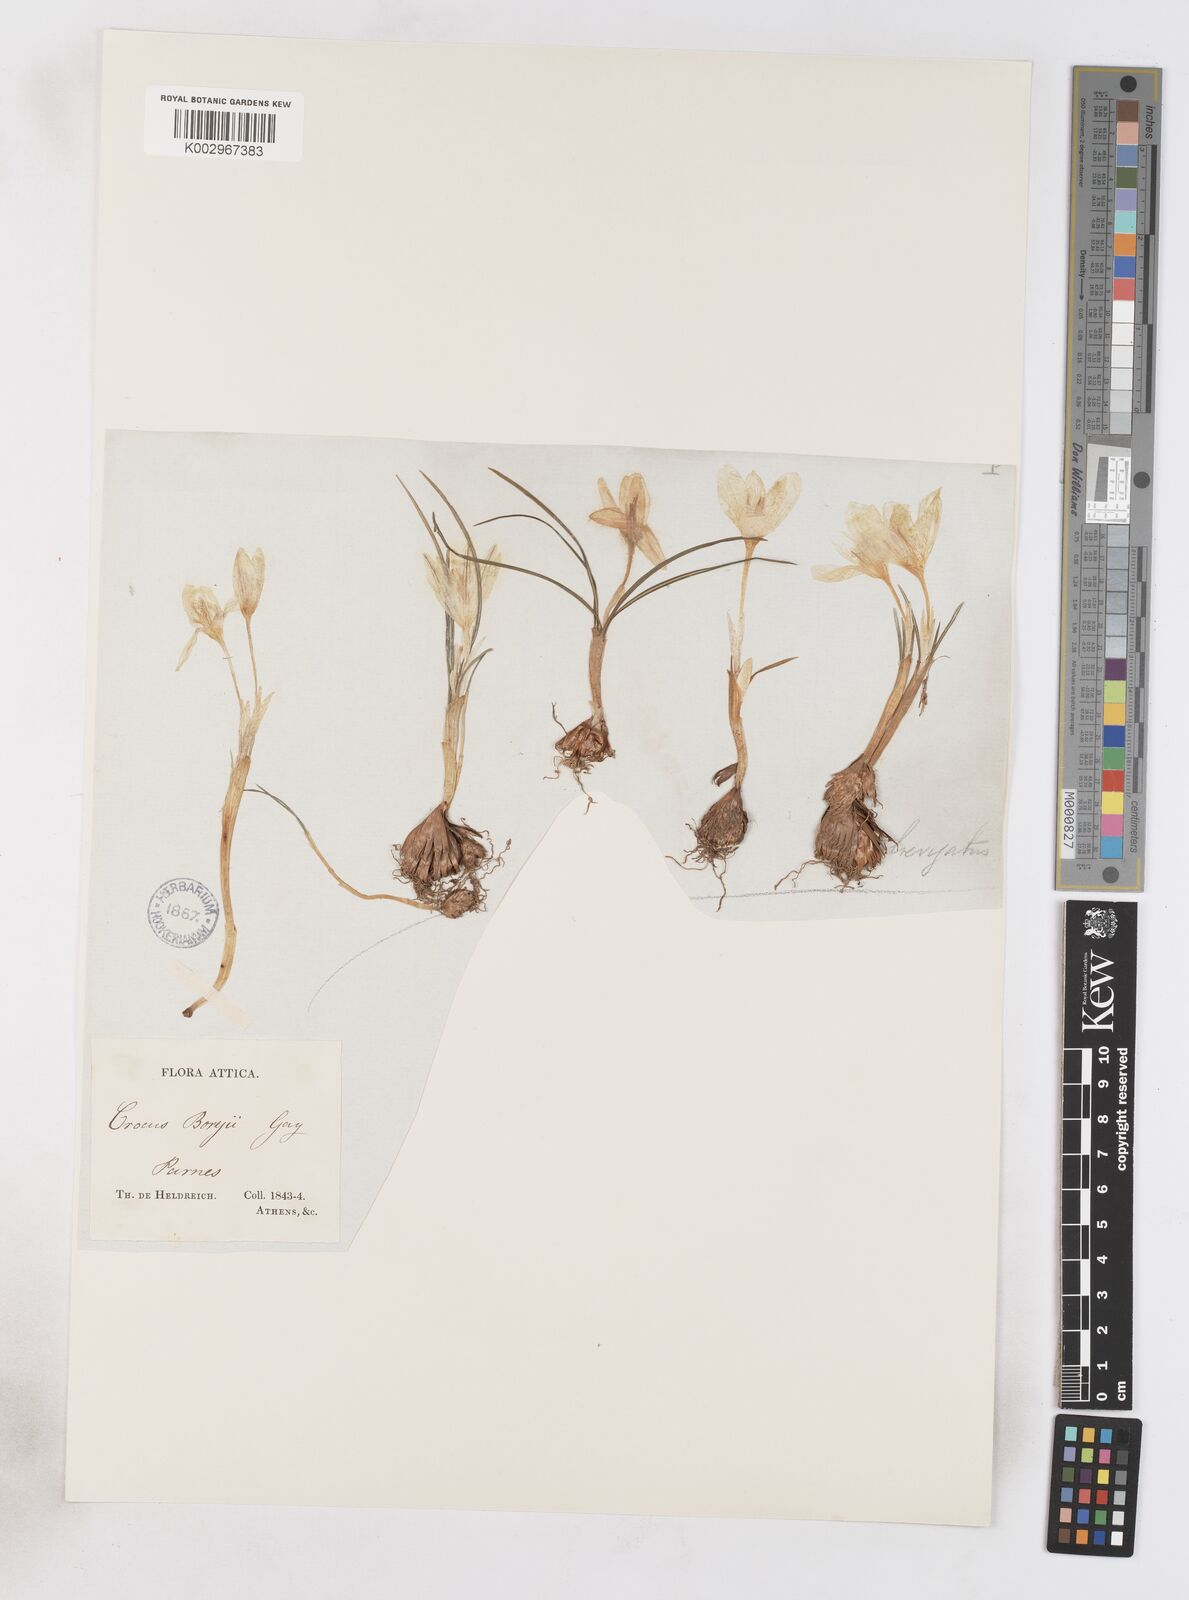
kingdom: Plantae
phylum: Tracheophyta
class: Liliopsida
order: Asparagales
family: Iridaceae
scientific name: Iridaceae
